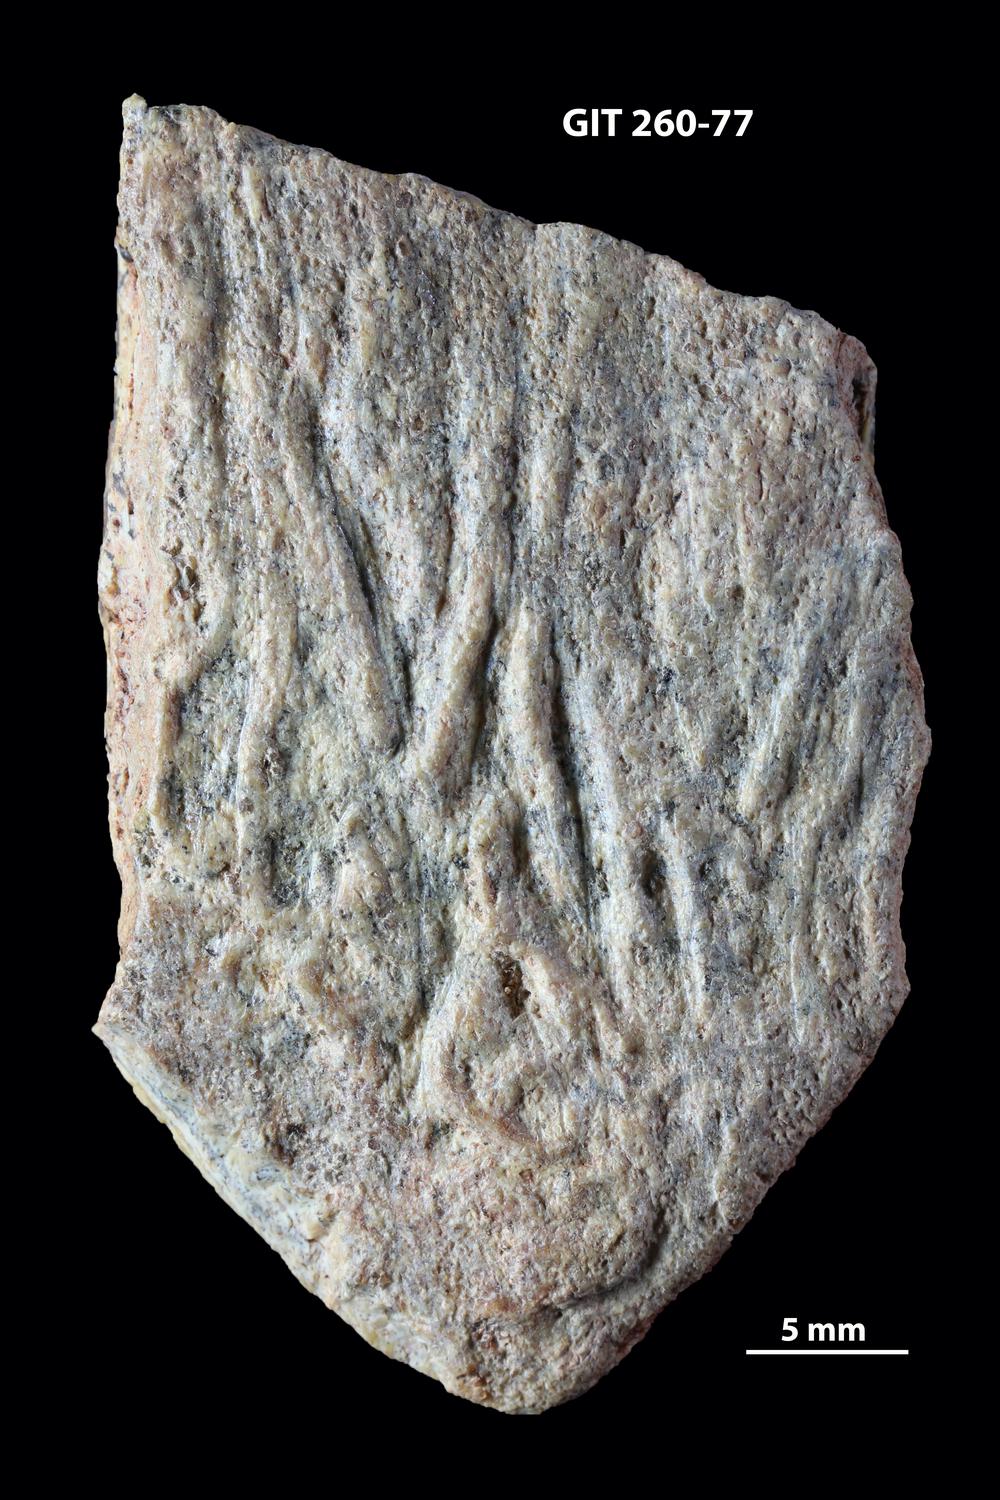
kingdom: Animalia
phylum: Chordata
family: Homostiidae
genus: Homostius
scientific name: Homostius
